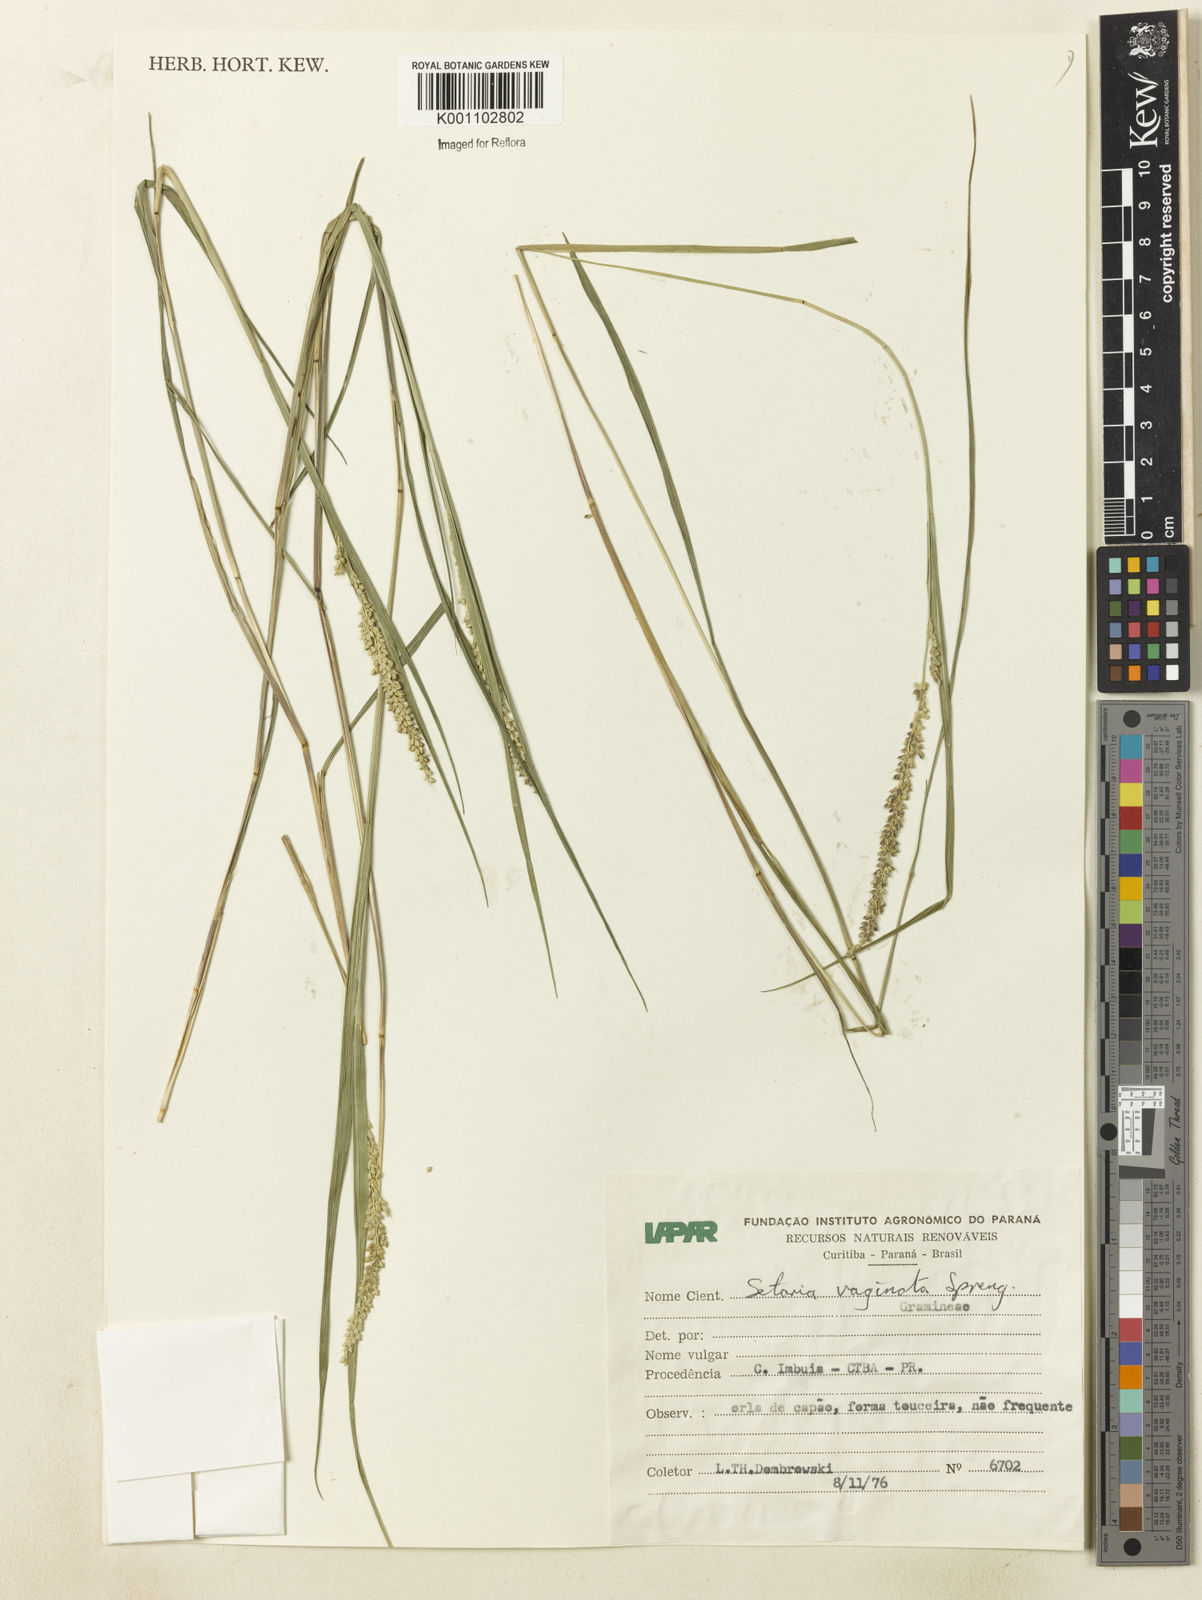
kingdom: Plantae
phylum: Tracheophyta
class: Liliopsida
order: Poales
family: Poaceae
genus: Setaria
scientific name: Setaria setosa
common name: West indies bristle grass
